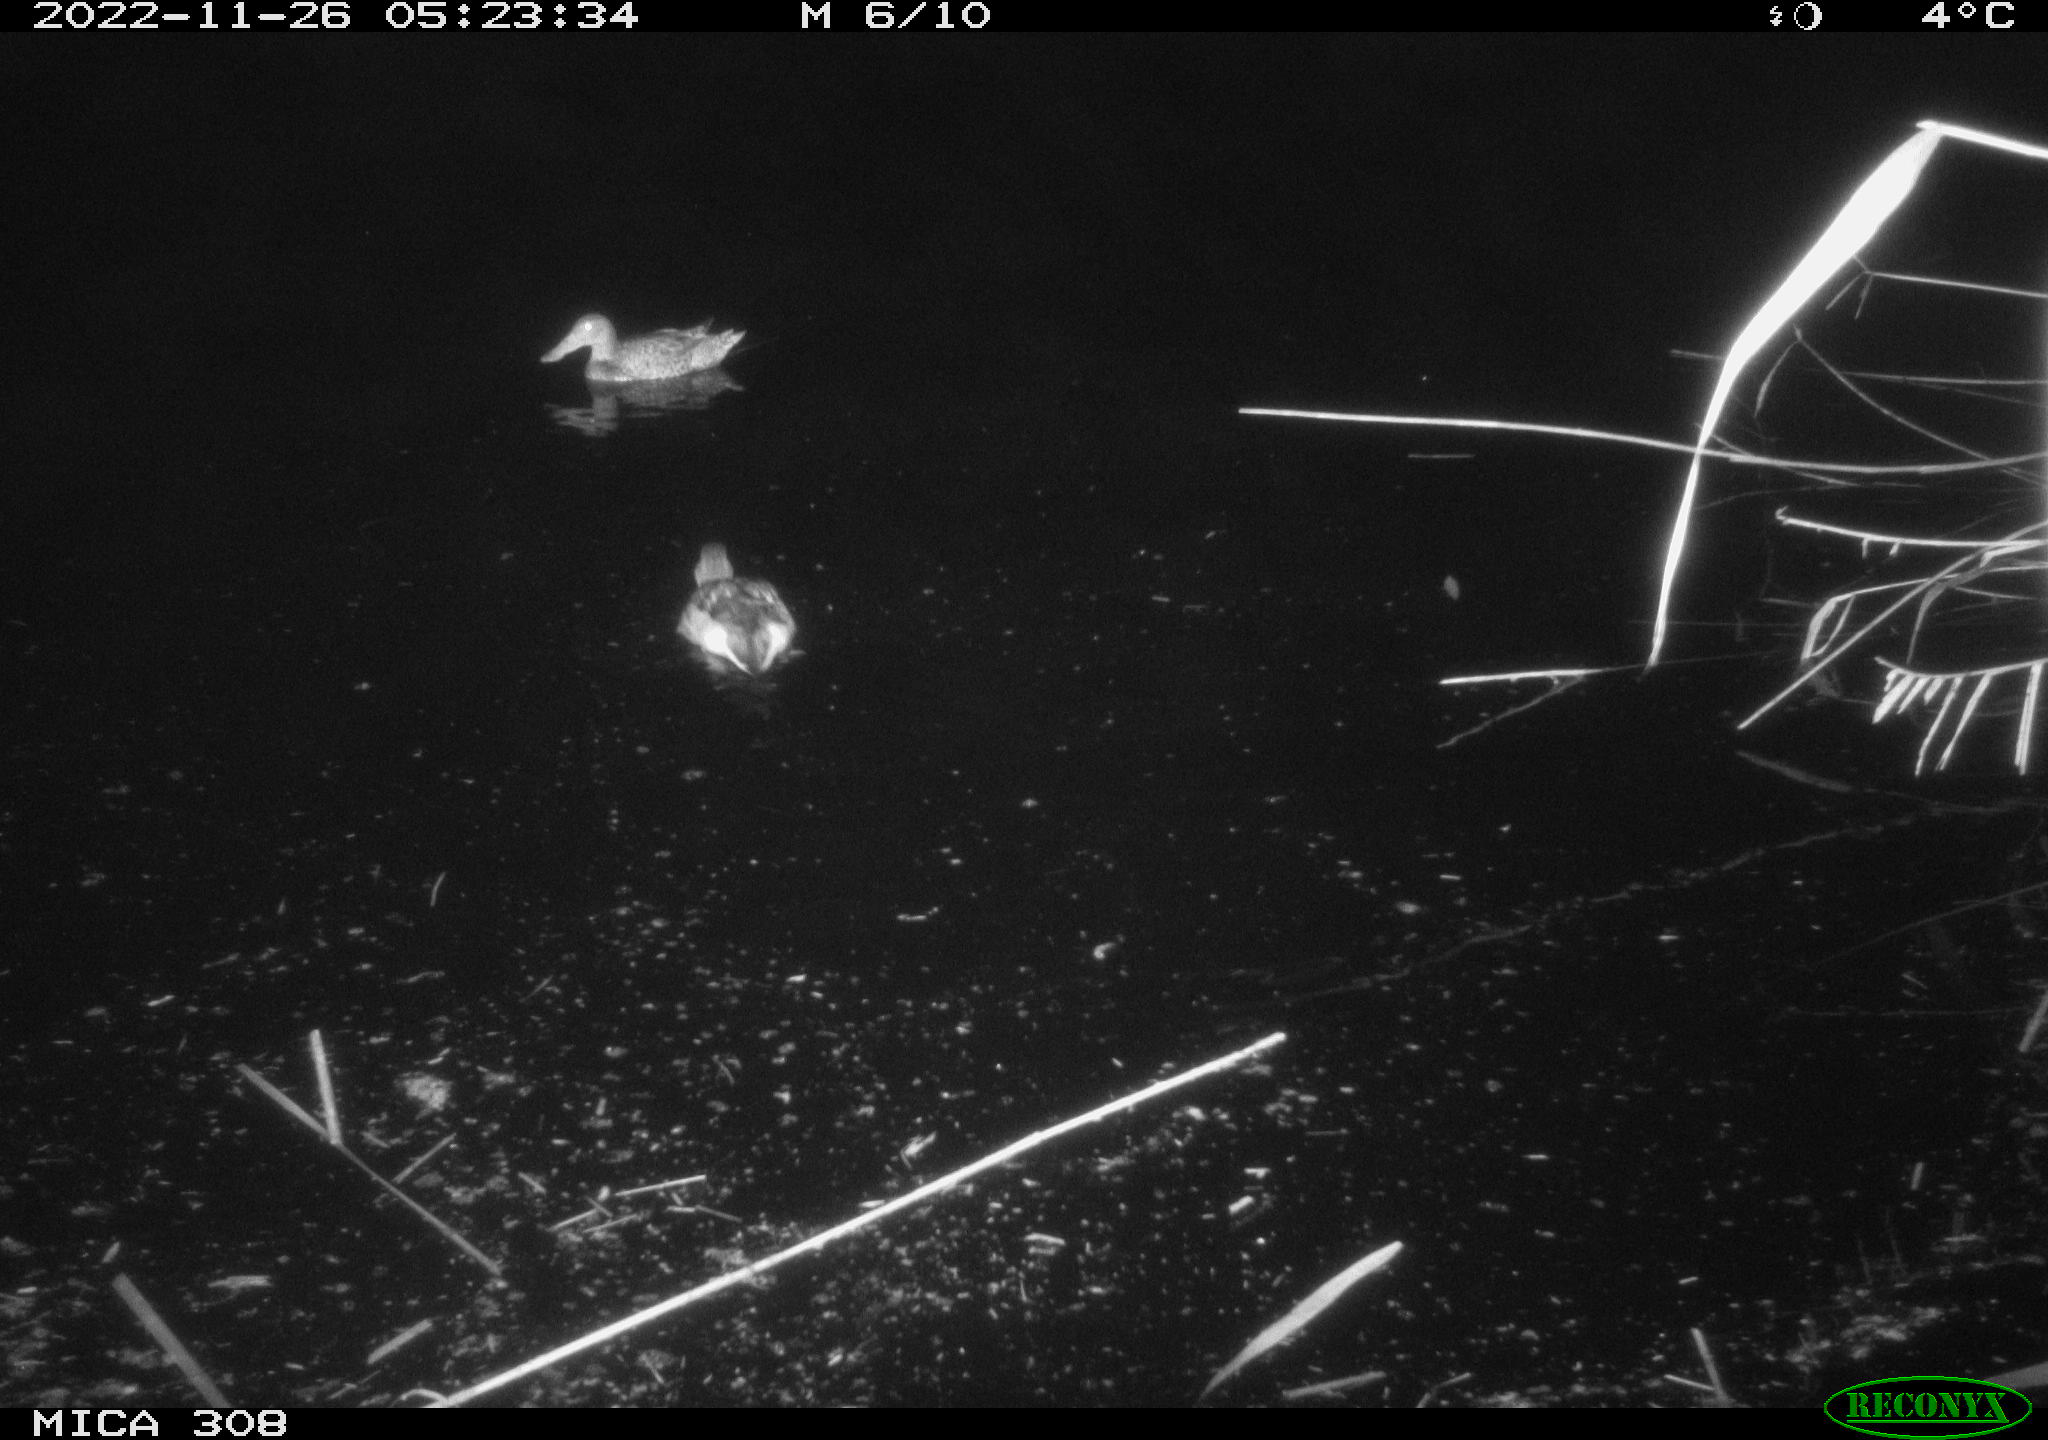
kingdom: Animalia
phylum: Chordata
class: Aves
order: Anseriformes
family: Anatidae
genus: Anas
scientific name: Anas
